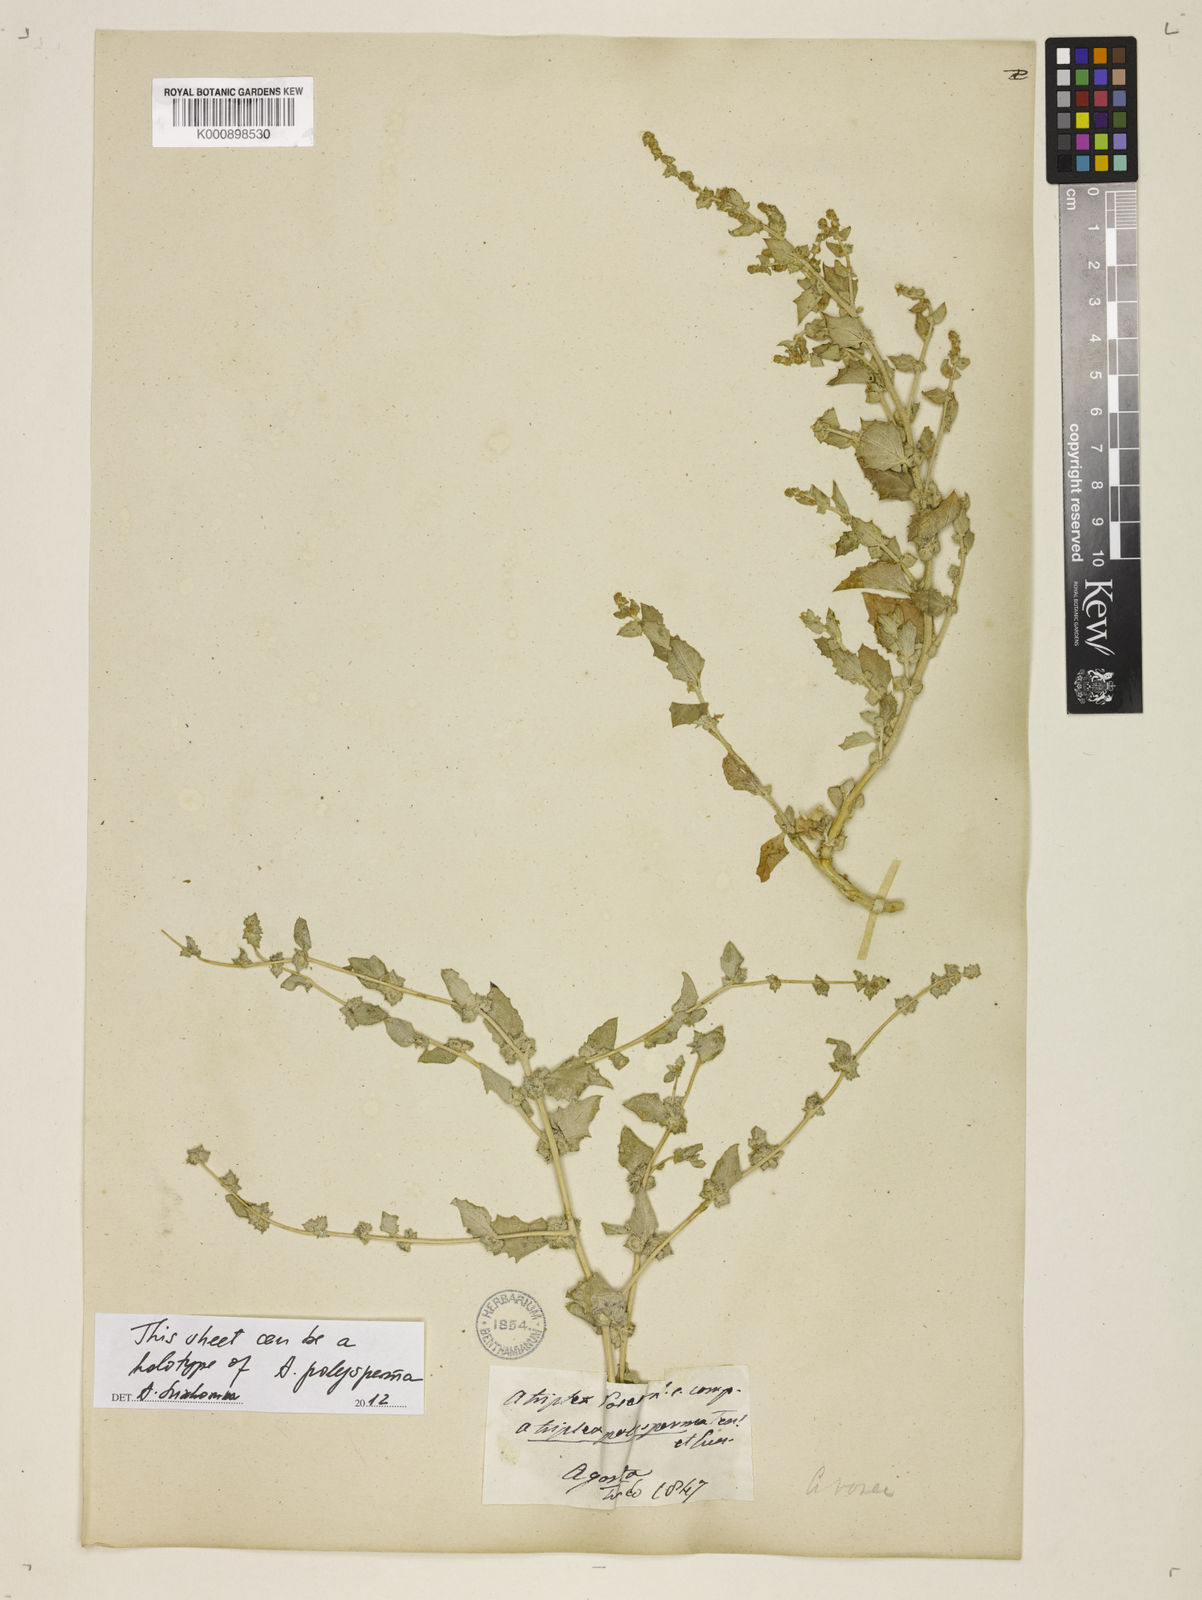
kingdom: Plantae
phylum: Tracheophyta
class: Magnoliopsida
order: Caryophyllales
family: Amaranthaceae
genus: Atriplex
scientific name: Atriplex rosea
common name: Tumbling saltweed
